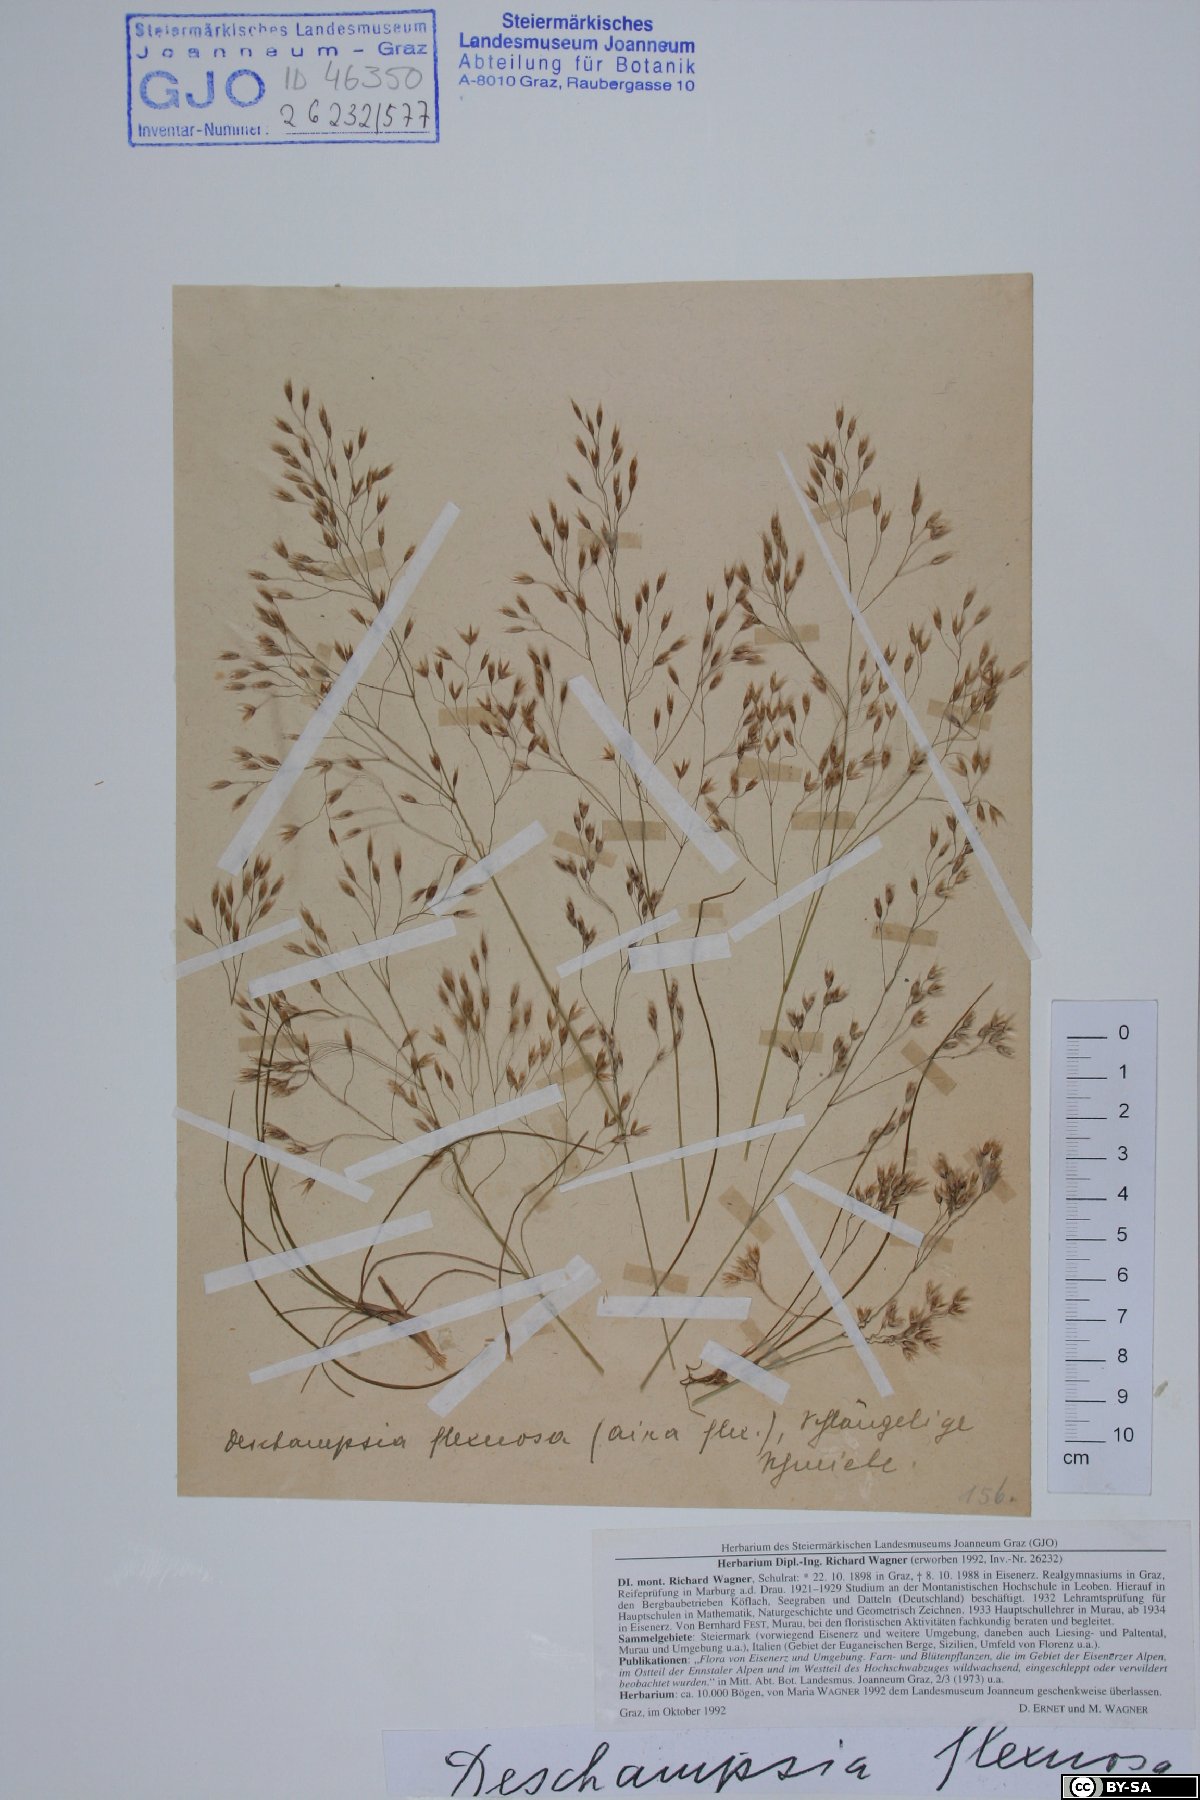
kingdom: Plantae
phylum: Tracheophyta
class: Liliopsida
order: Poales
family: Poaceae
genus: Avenella
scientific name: Avenella flexuosa
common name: Wavy hairgrass
